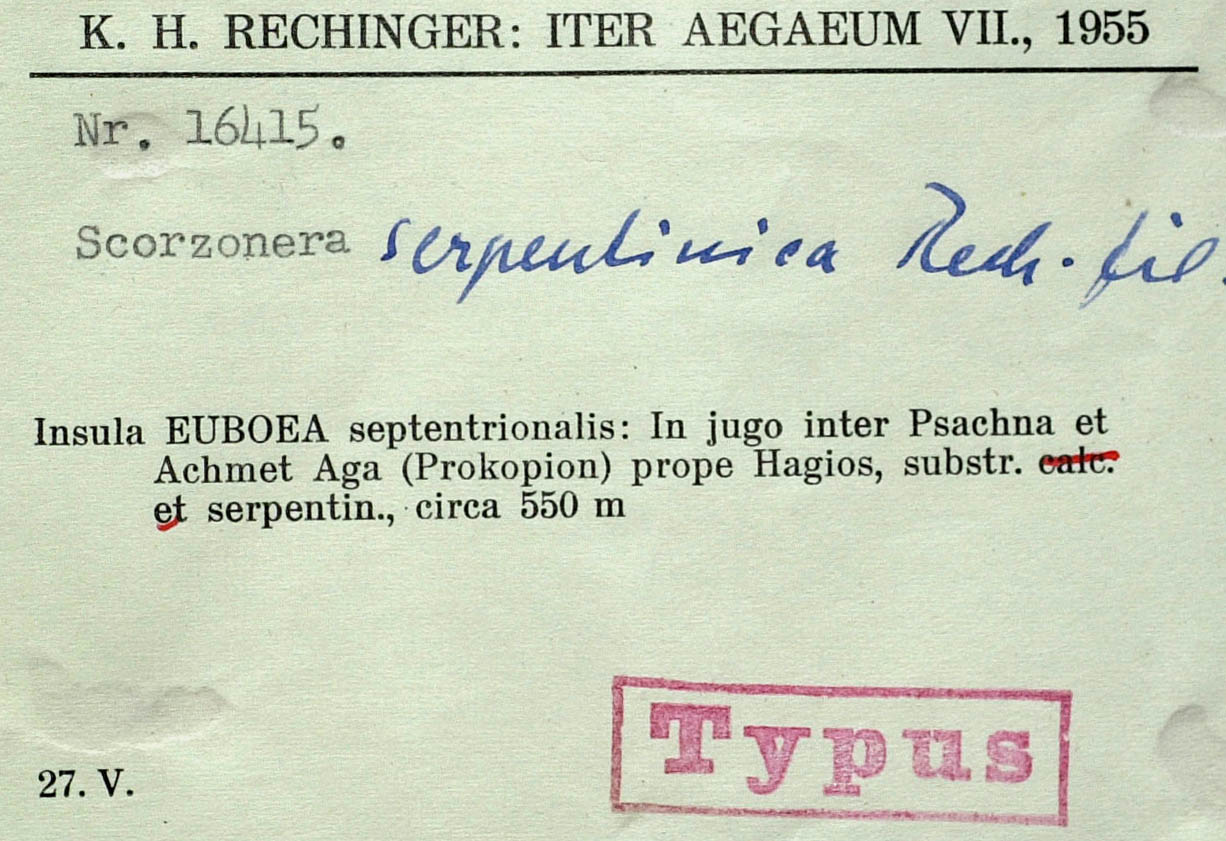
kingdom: Plantae
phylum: Tracheophyta
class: Magnoliopsida
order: Asterales
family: Asteraceae
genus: Pseudopodospermum
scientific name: Pseudopodospermum crocifolium
